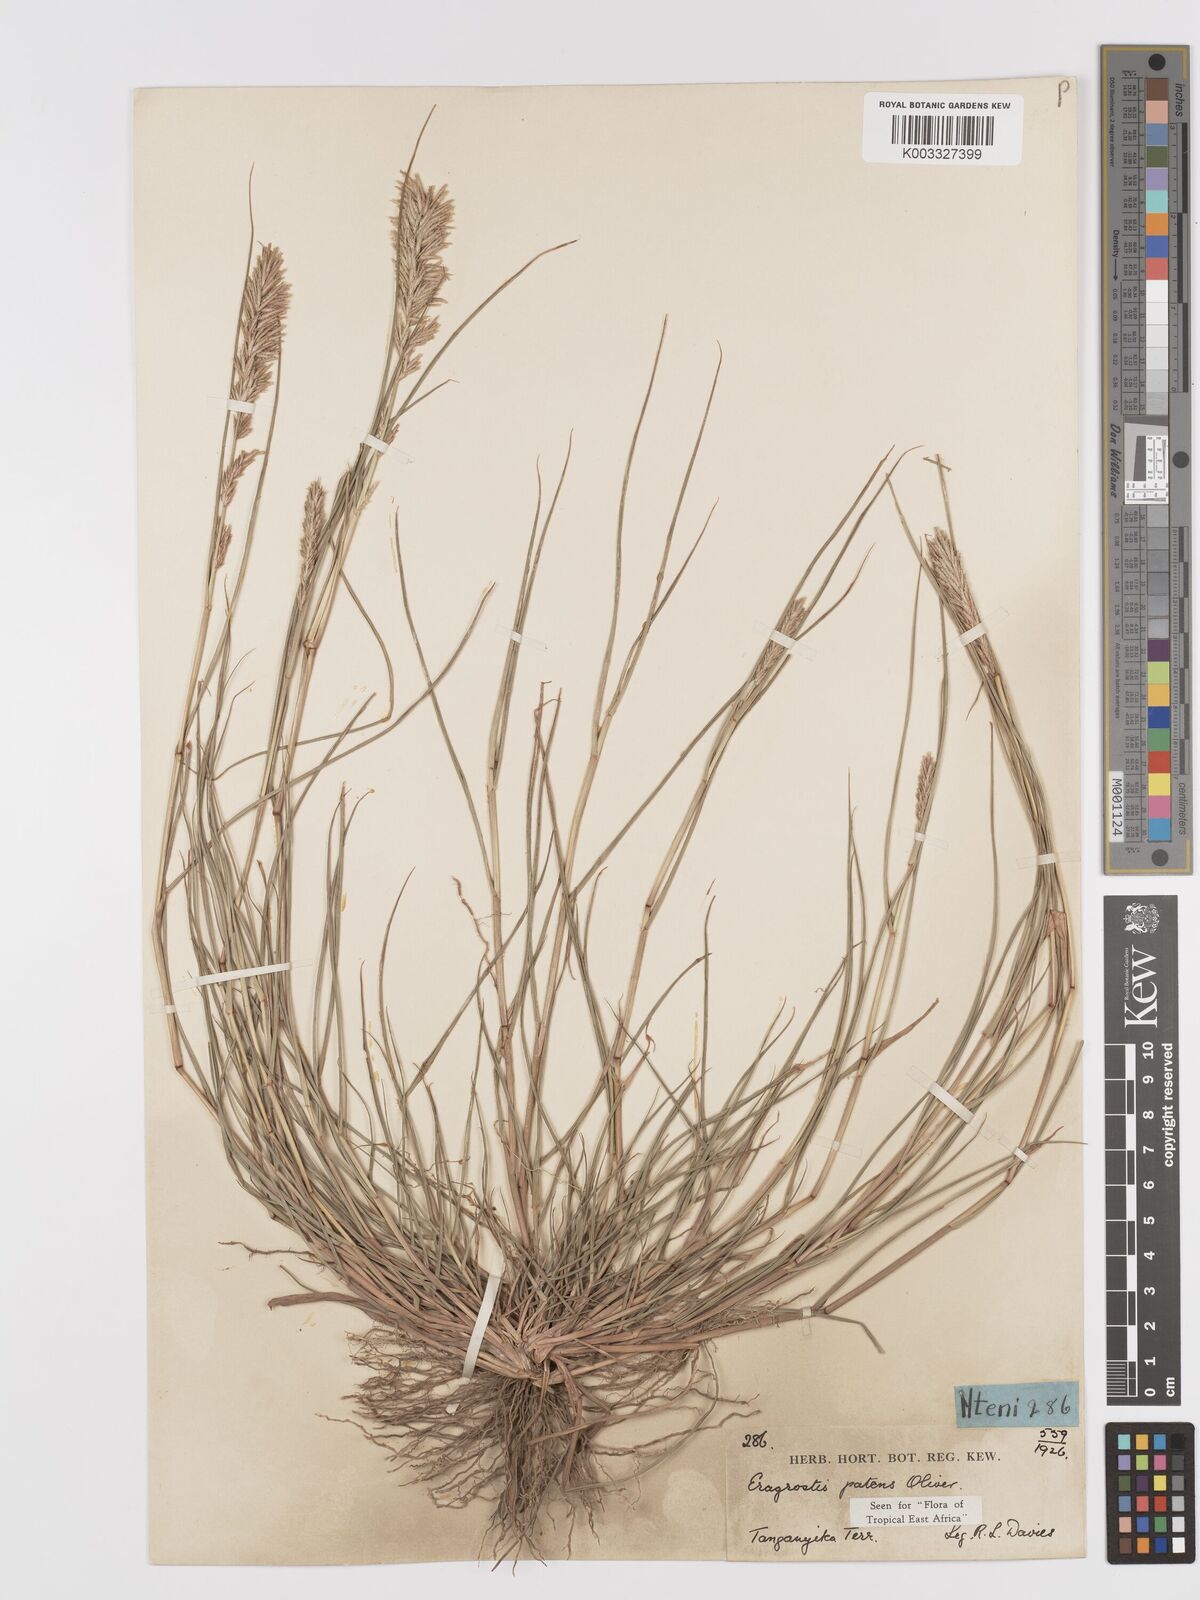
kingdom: Plantae
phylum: Tracheophyta
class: Liliopsida
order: Poales
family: Poaceae
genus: Eragrostis
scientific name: Eragrostis patens
